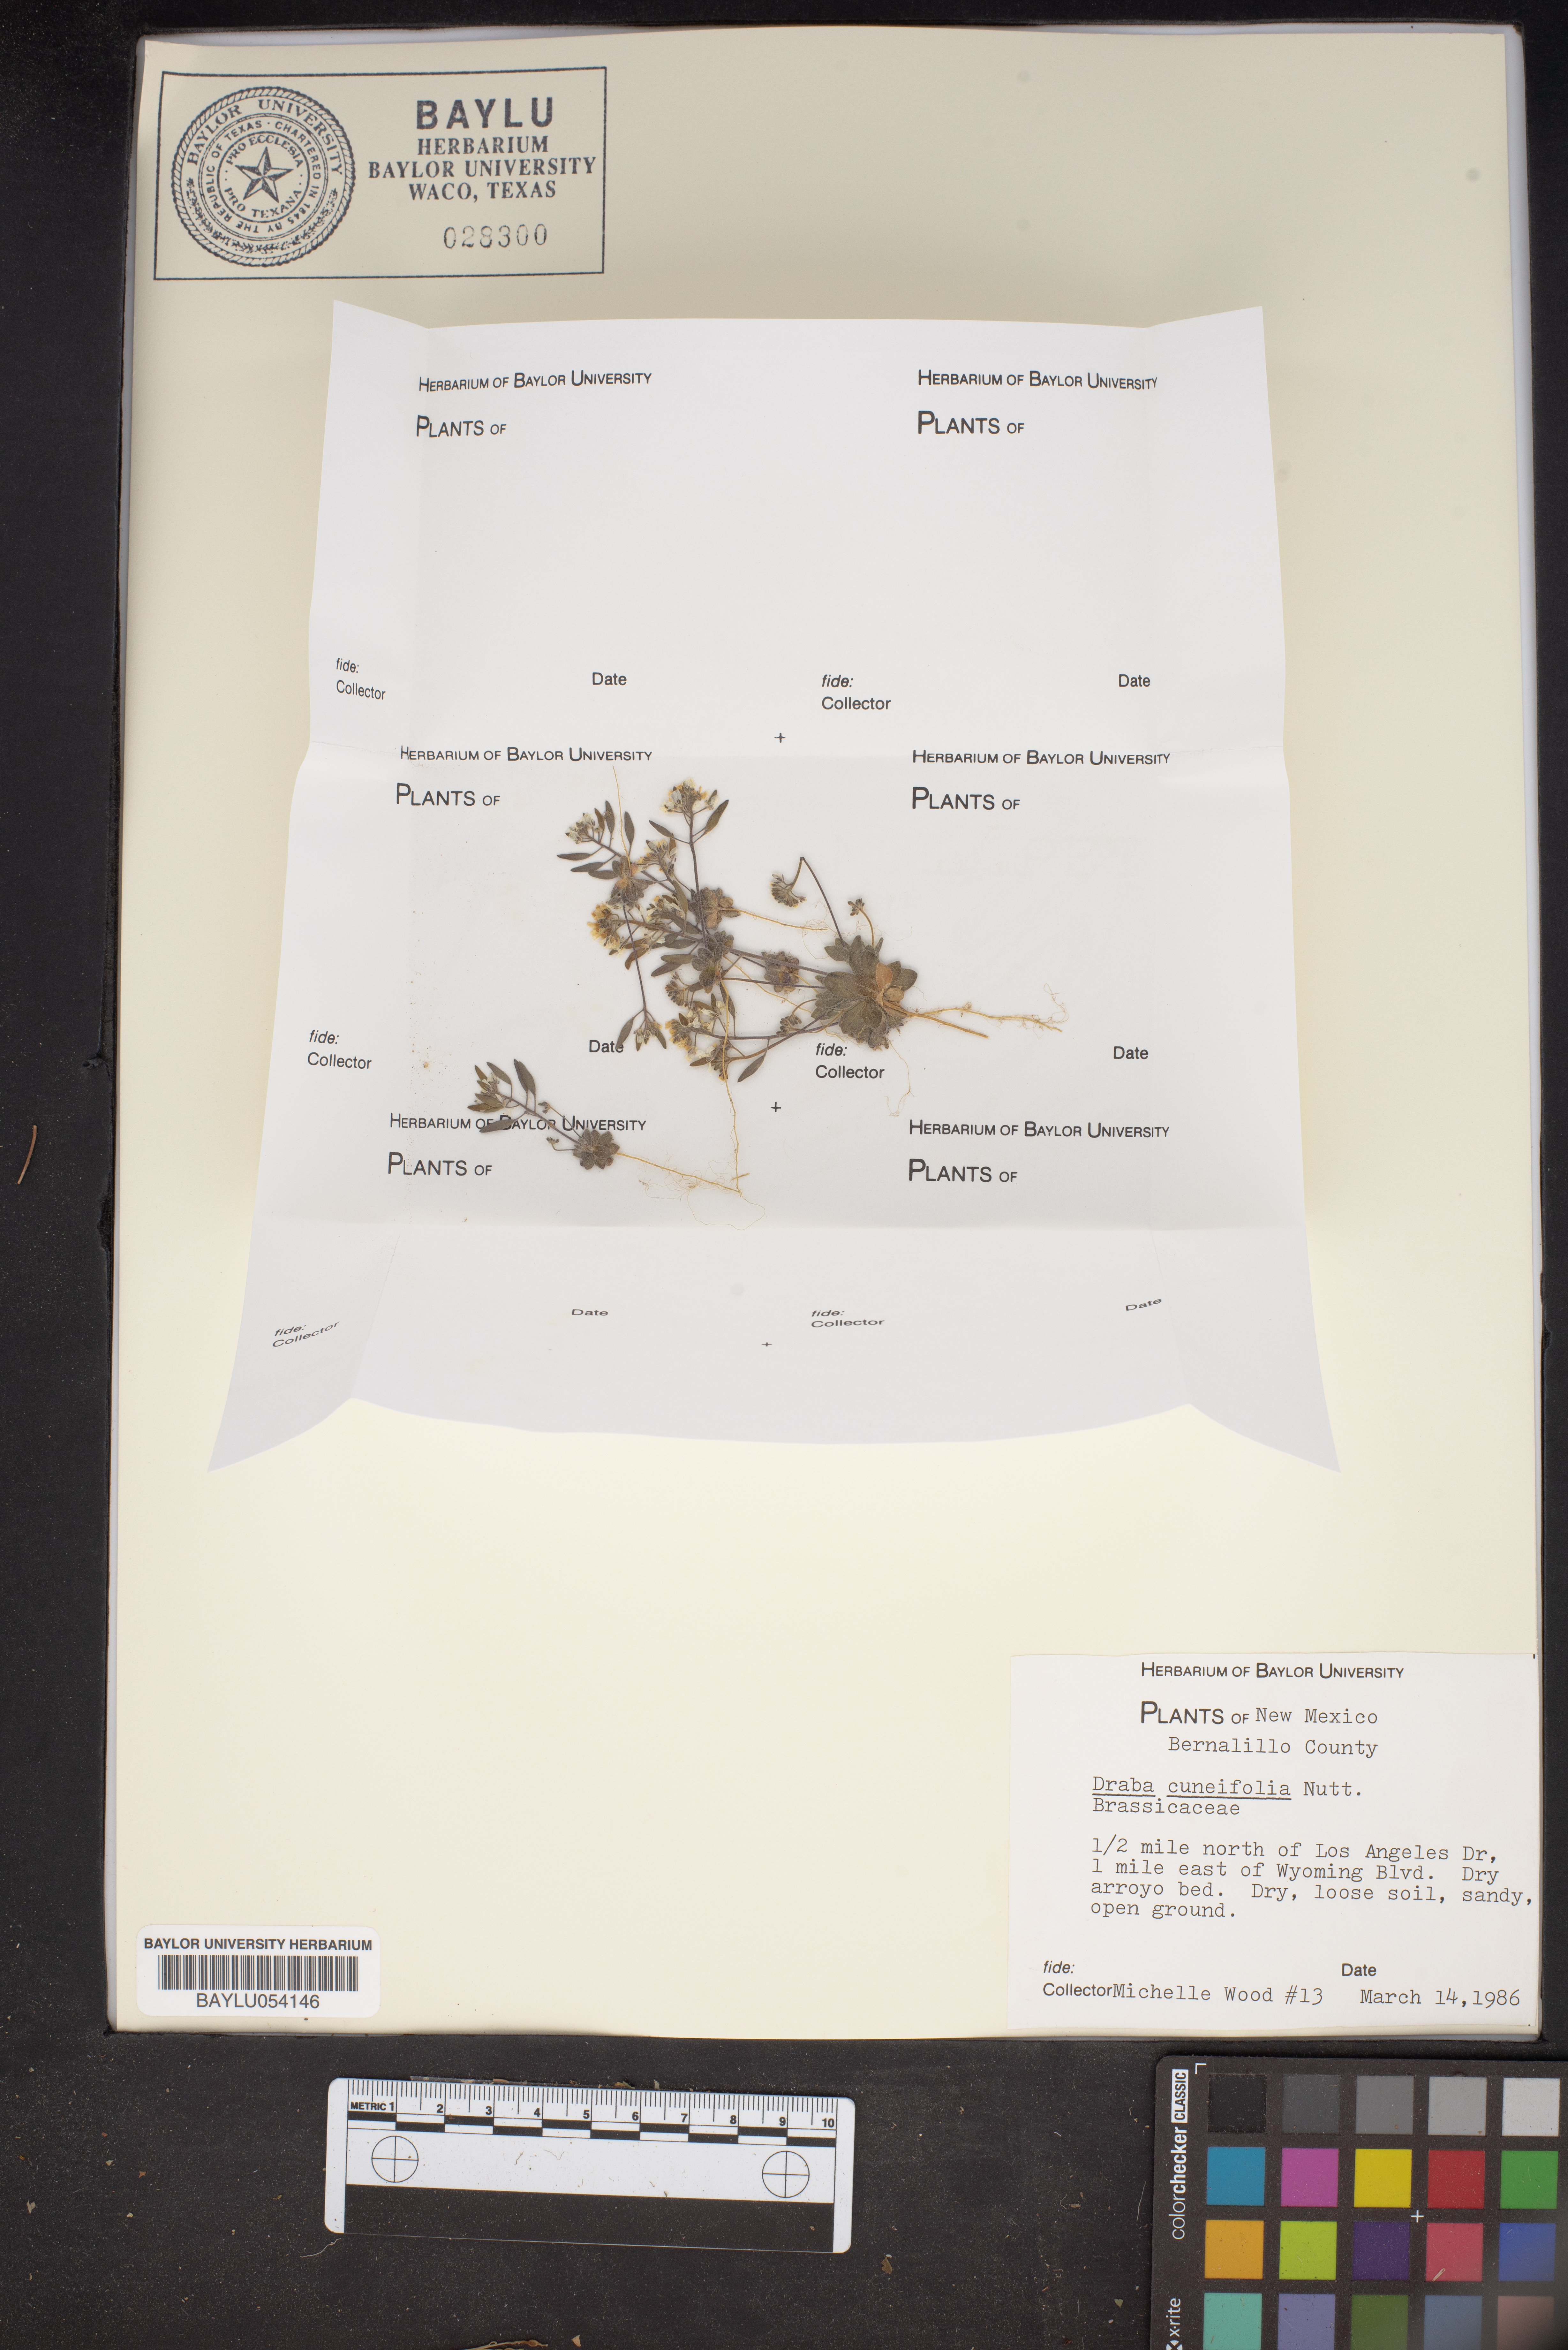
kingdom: Plantae
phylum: Tracheophyta
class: Magnoliopsida
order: Brassicales
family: Brassicaceae
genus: Tomostima
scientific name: Tomostima cuneifolia
